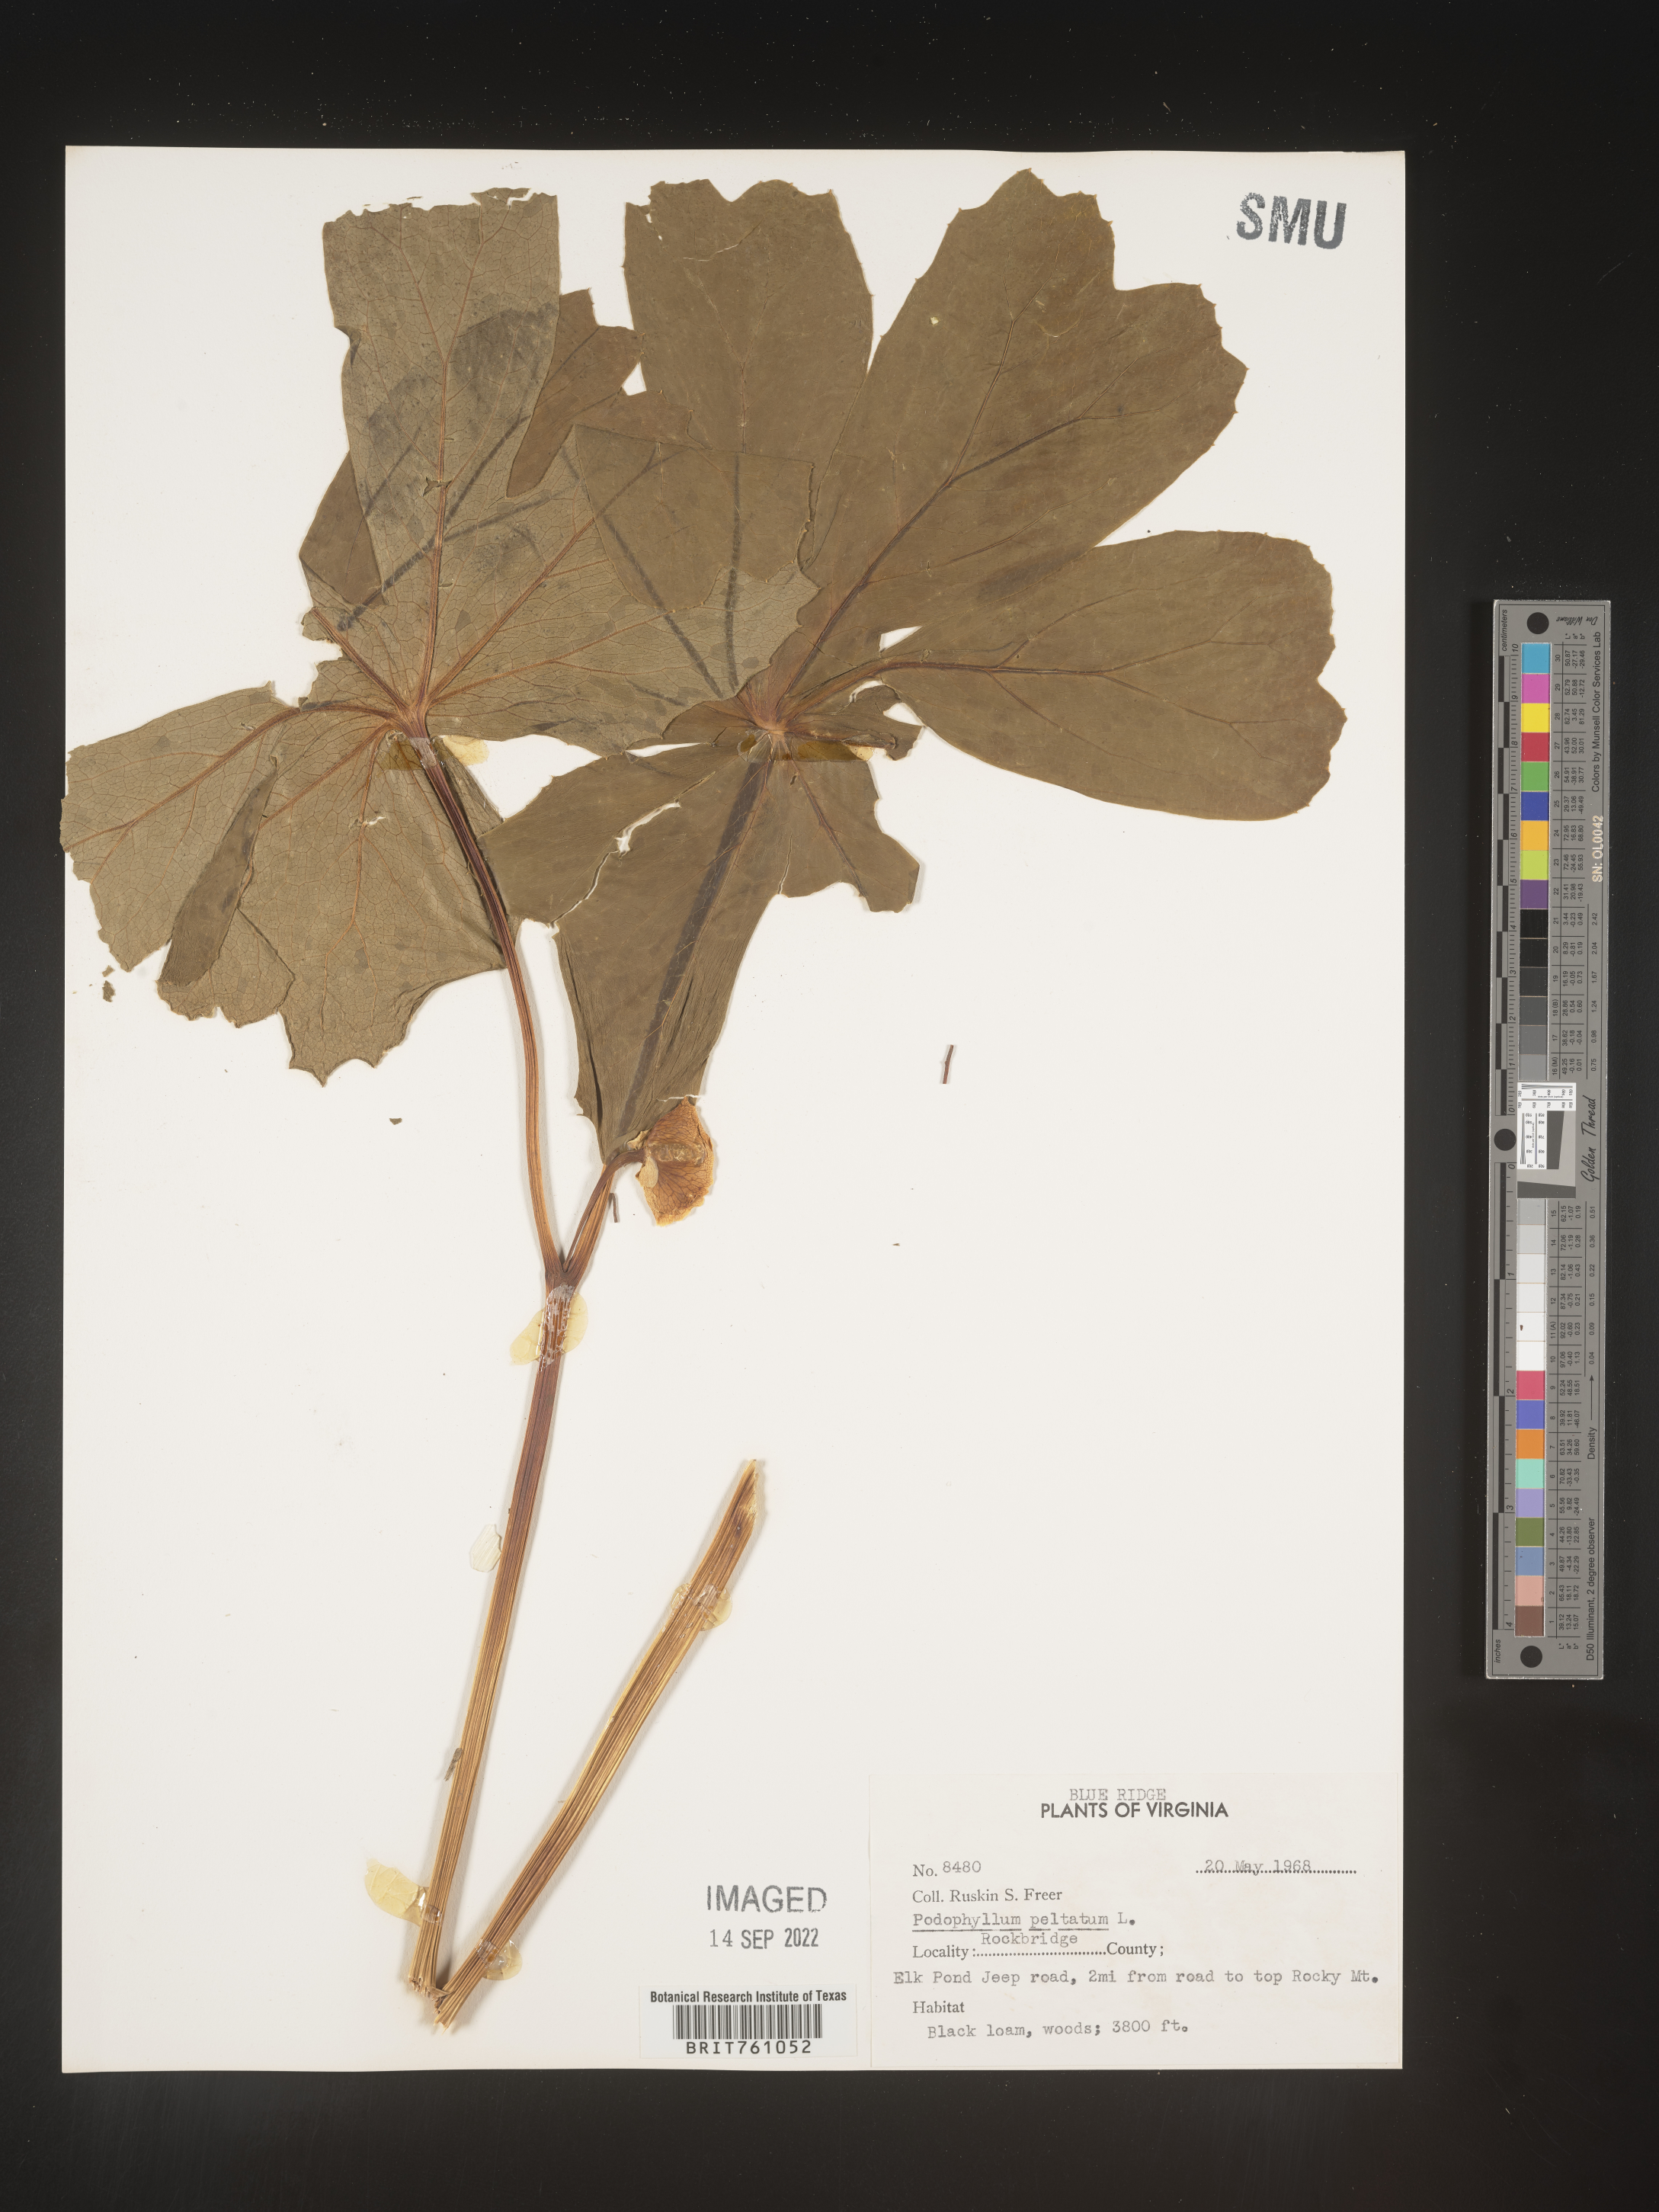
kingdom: Plantae
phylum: Tracheophyta
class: Magnoliopsida
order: Ranunculales
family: Berberidaceae
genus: Podophyllum
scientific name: Podophyllum peltatum
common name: Wild mandrake
